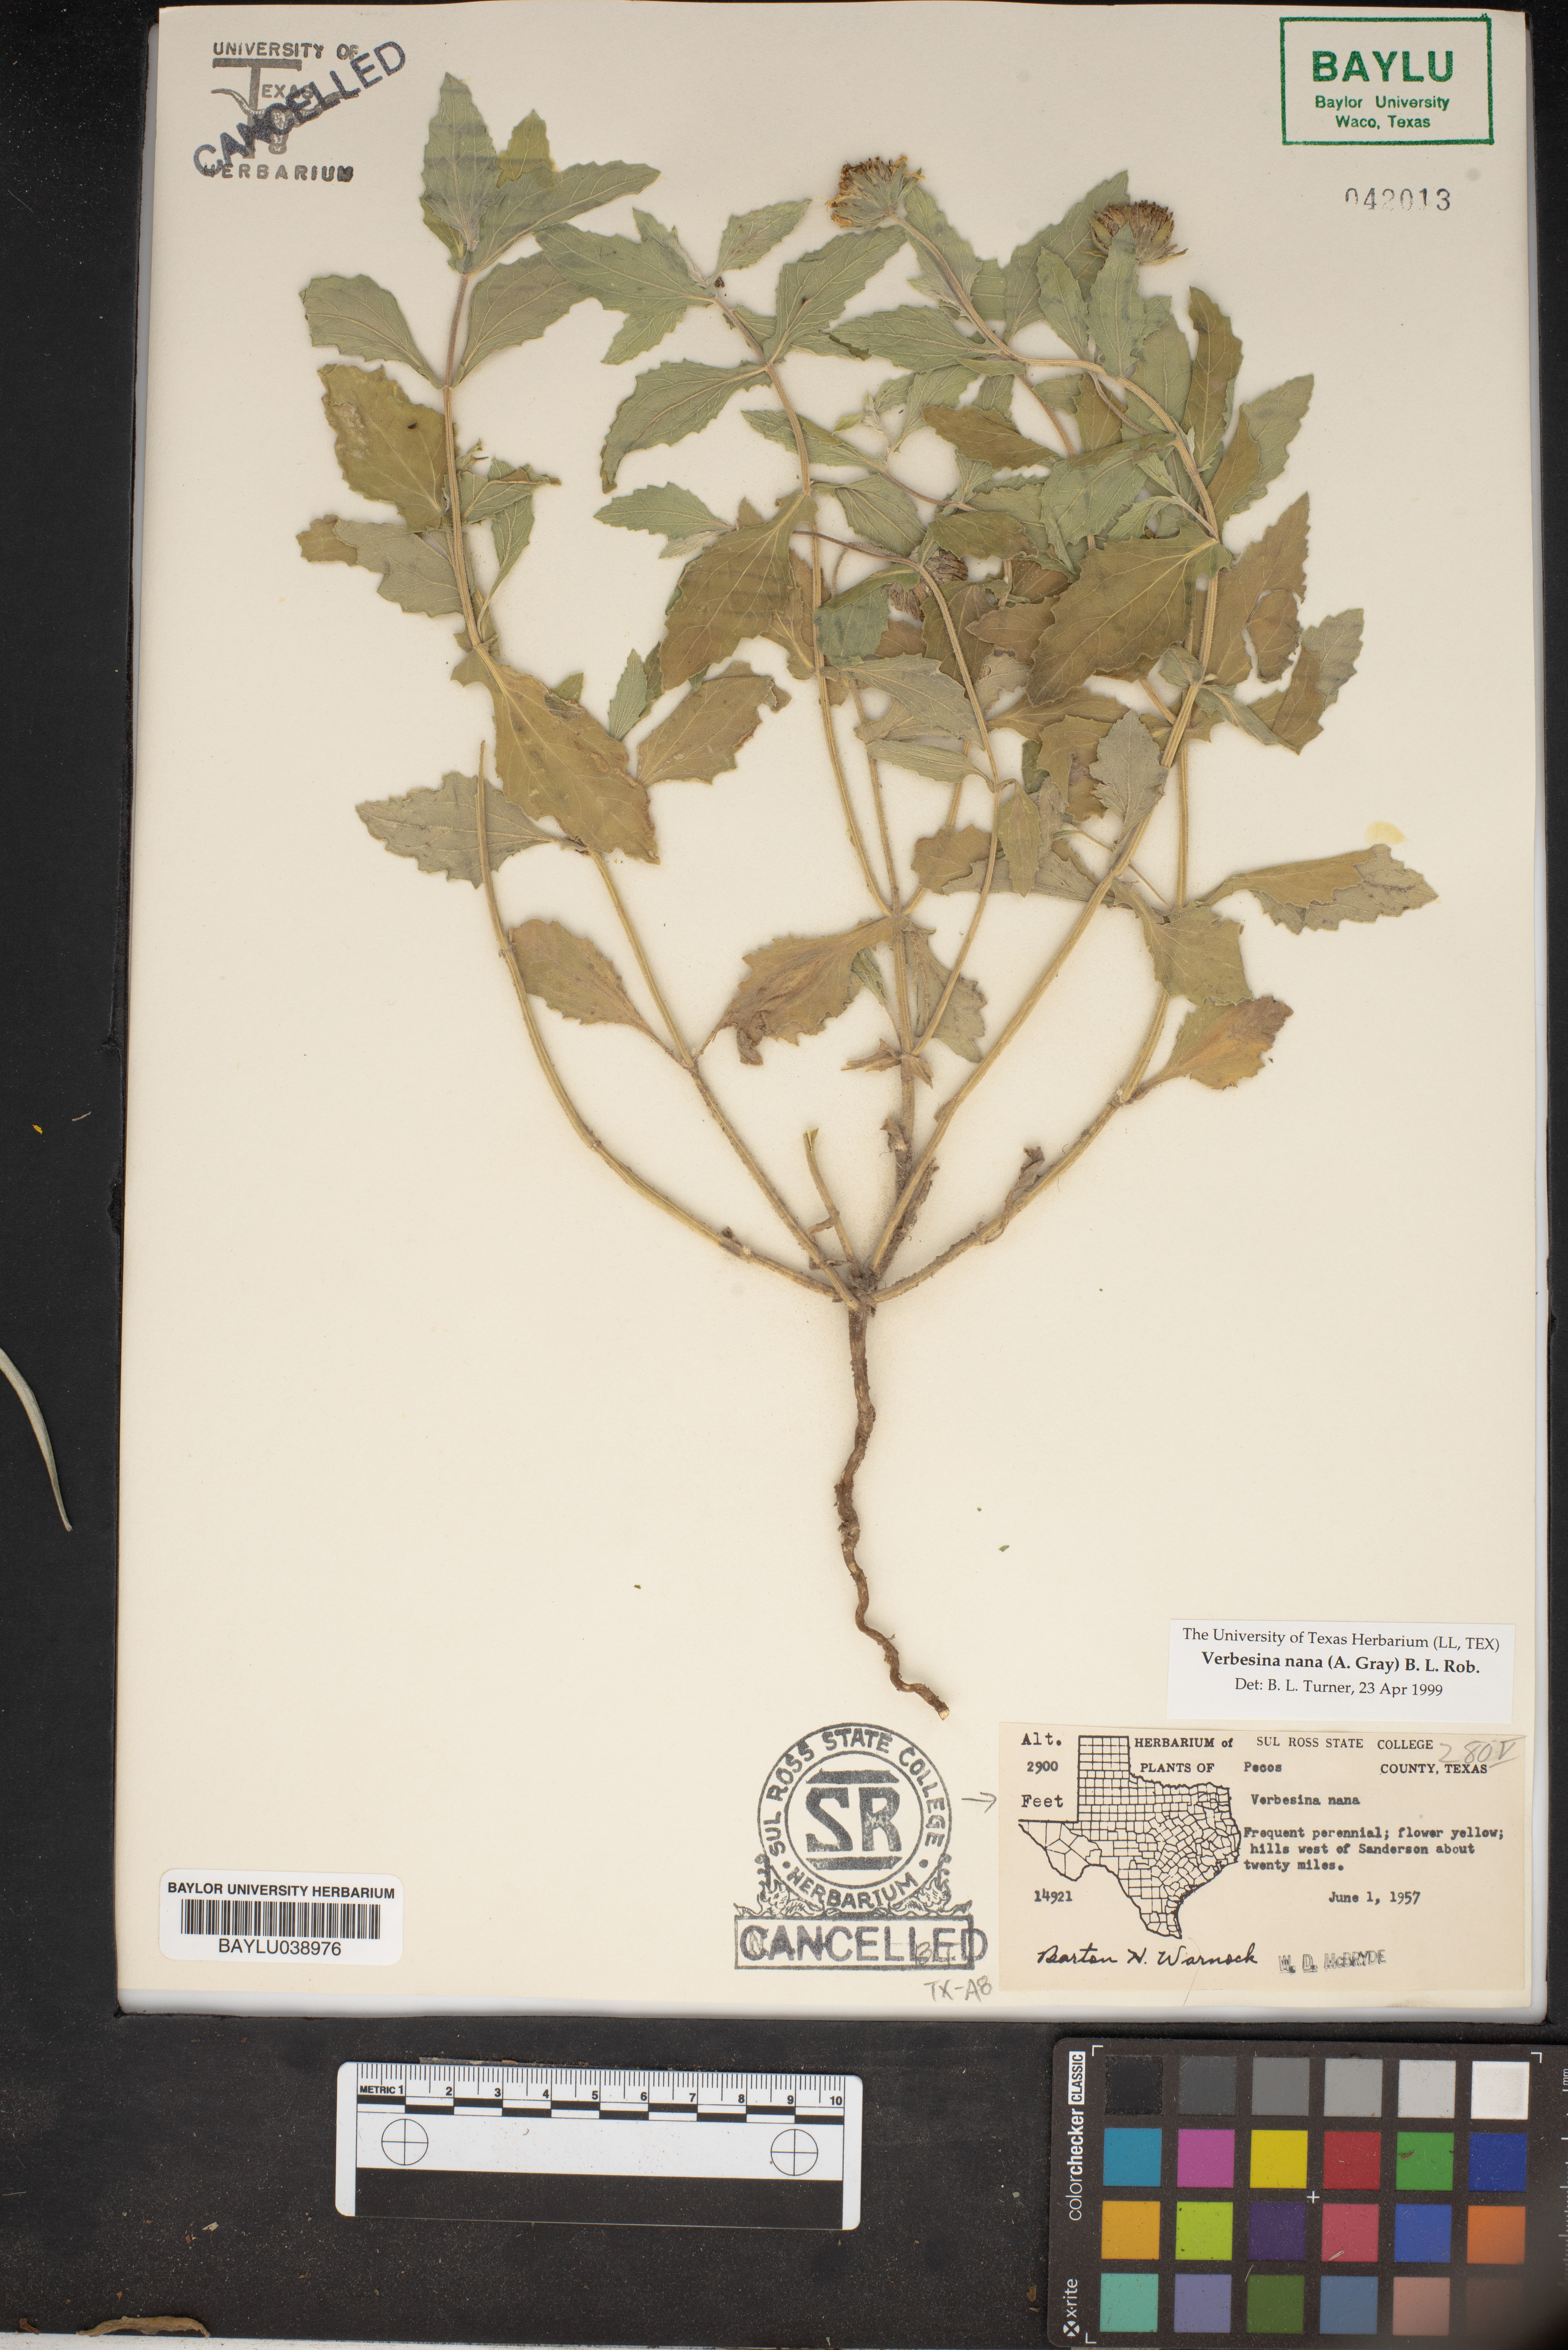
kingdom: Plantae
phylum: Tracheophyta
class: Magnoliopsida
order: Asterales
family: Asteraceae
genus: Verbesina
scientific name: Verbesina nana
